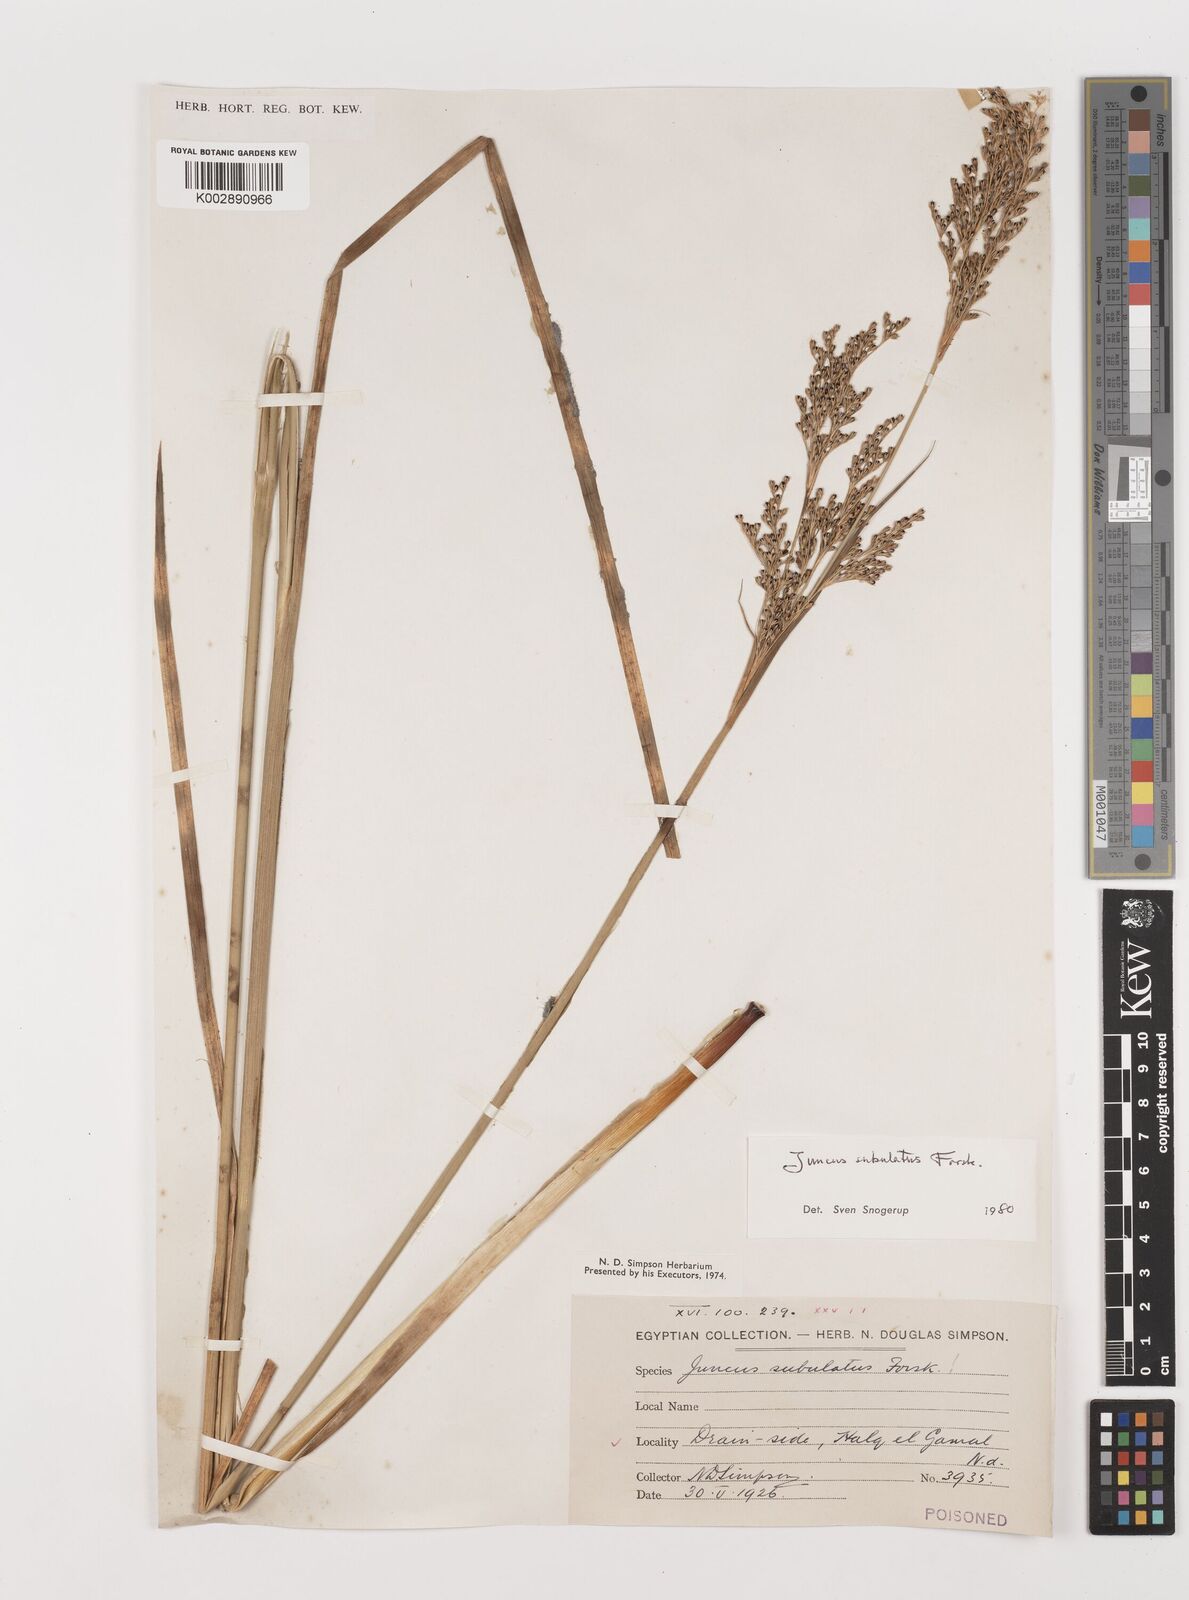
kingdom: Plantae
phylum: Tracheophyta
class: Liliopsida
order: Poales
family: Juncaceae
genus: Juncus
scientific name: Juncus subulatus
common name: Somerset rush
